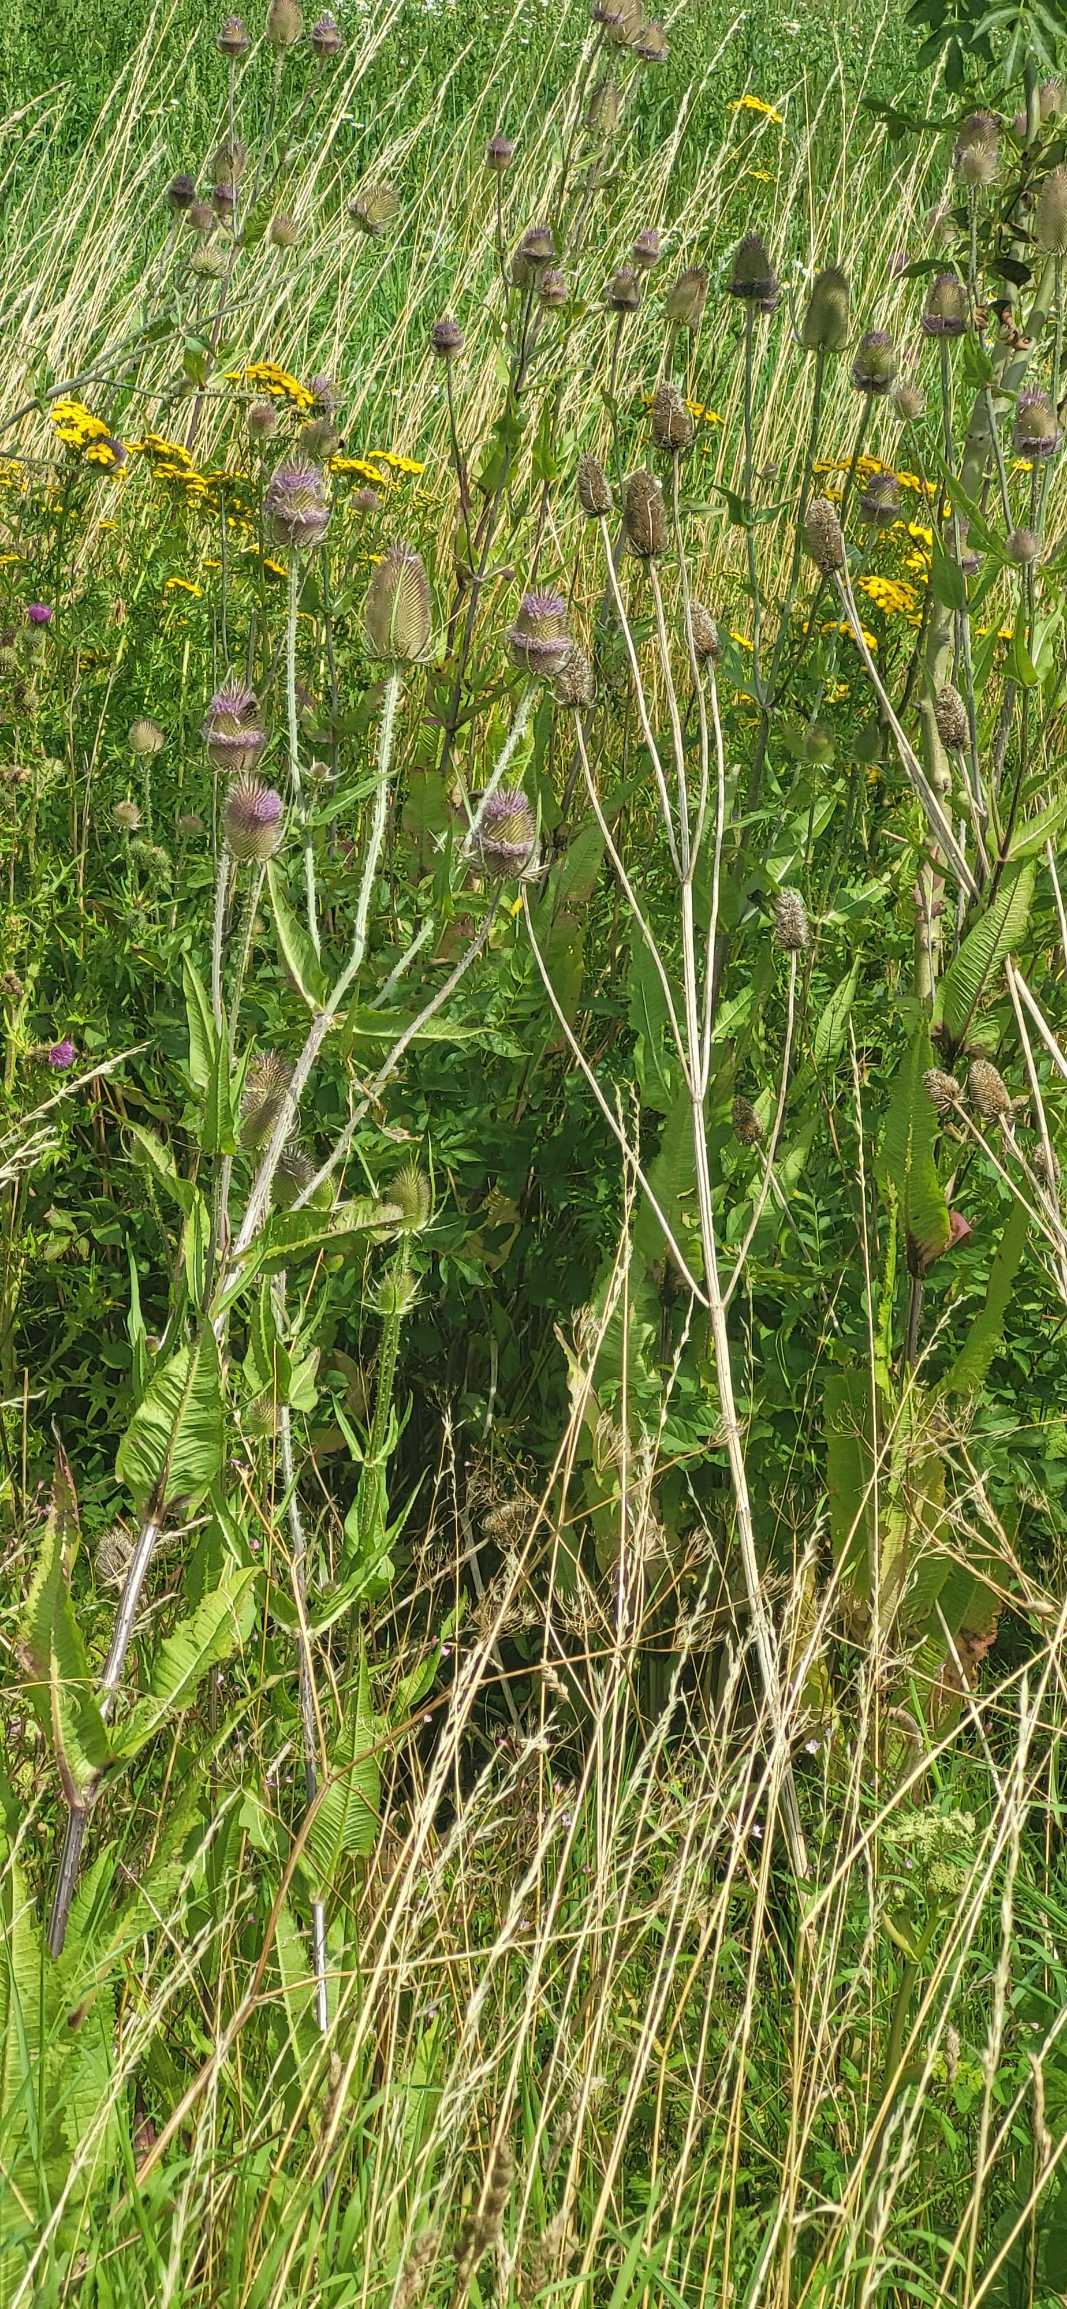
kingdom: Plantae
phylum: Tracheophyta
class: Magnoliopsida
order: Dipsacales
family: Caprifoliaceae
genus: Dipsacus
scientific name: Dipsacus fullonum
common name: Gærde-kartebolle
